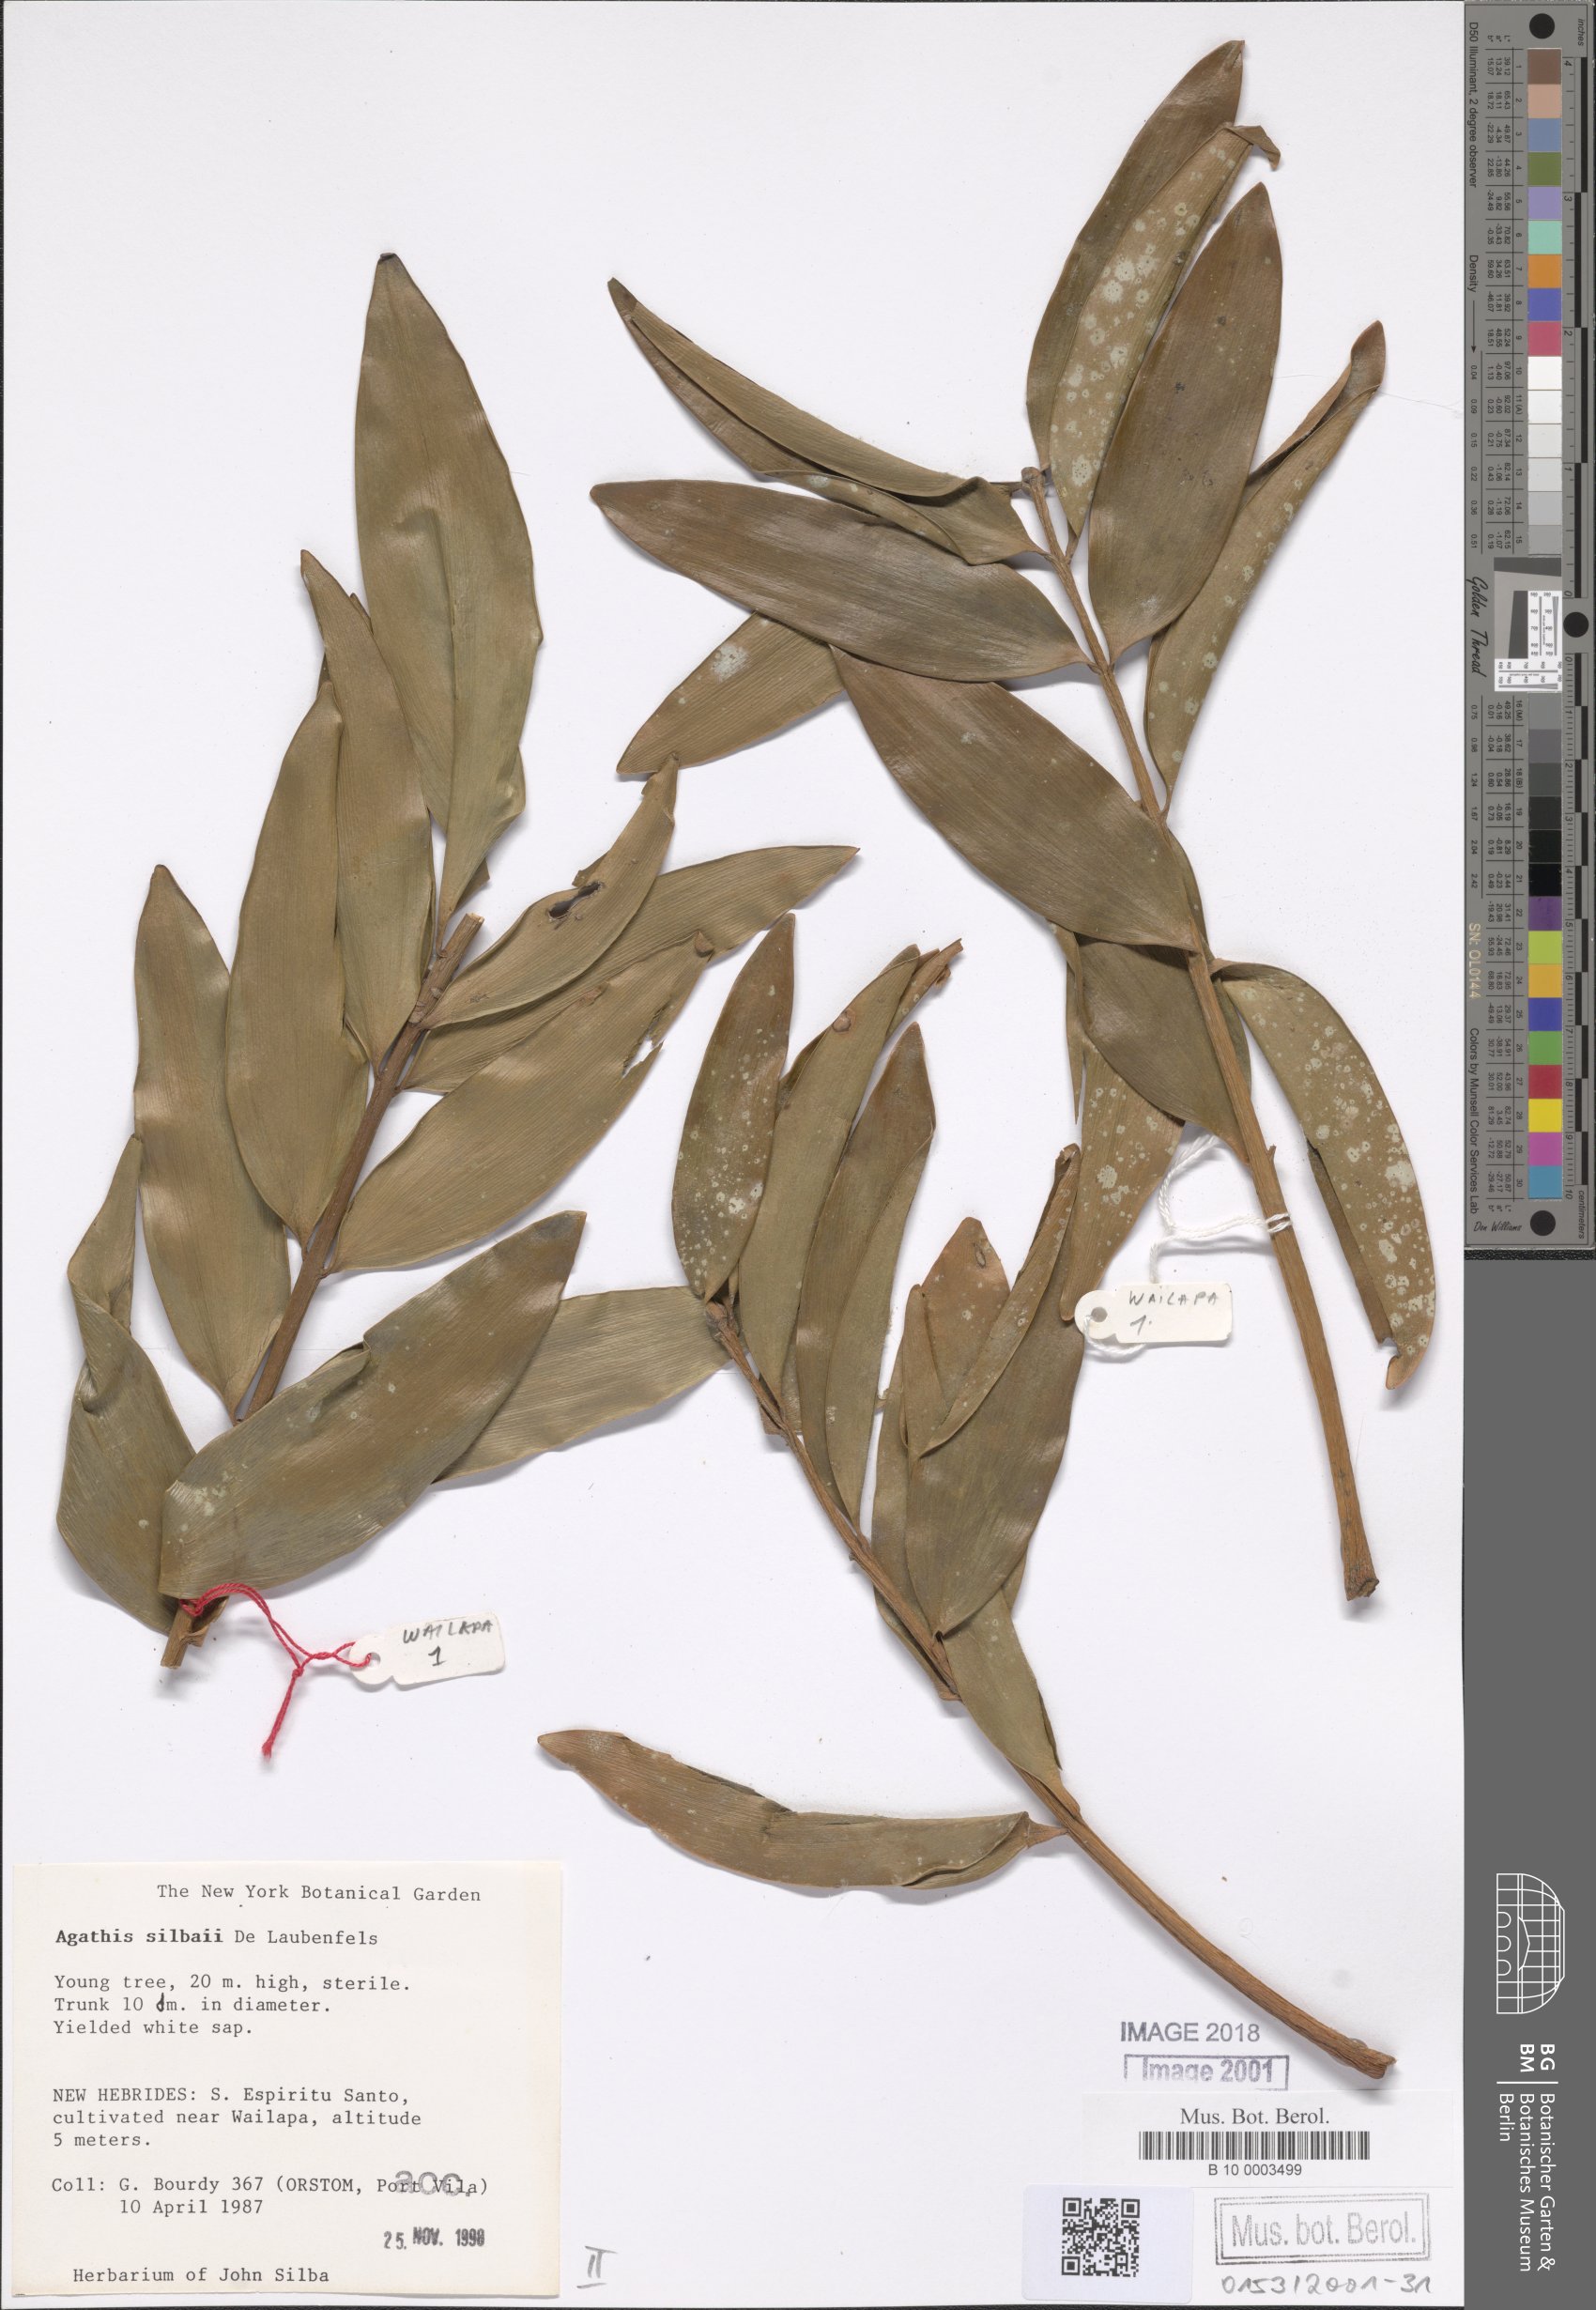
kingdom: Plantae
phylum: Tracheophyta
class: Pinopsida
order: Pinales
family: Araucariaceae
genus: Agathis
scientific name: Agathis silbae
